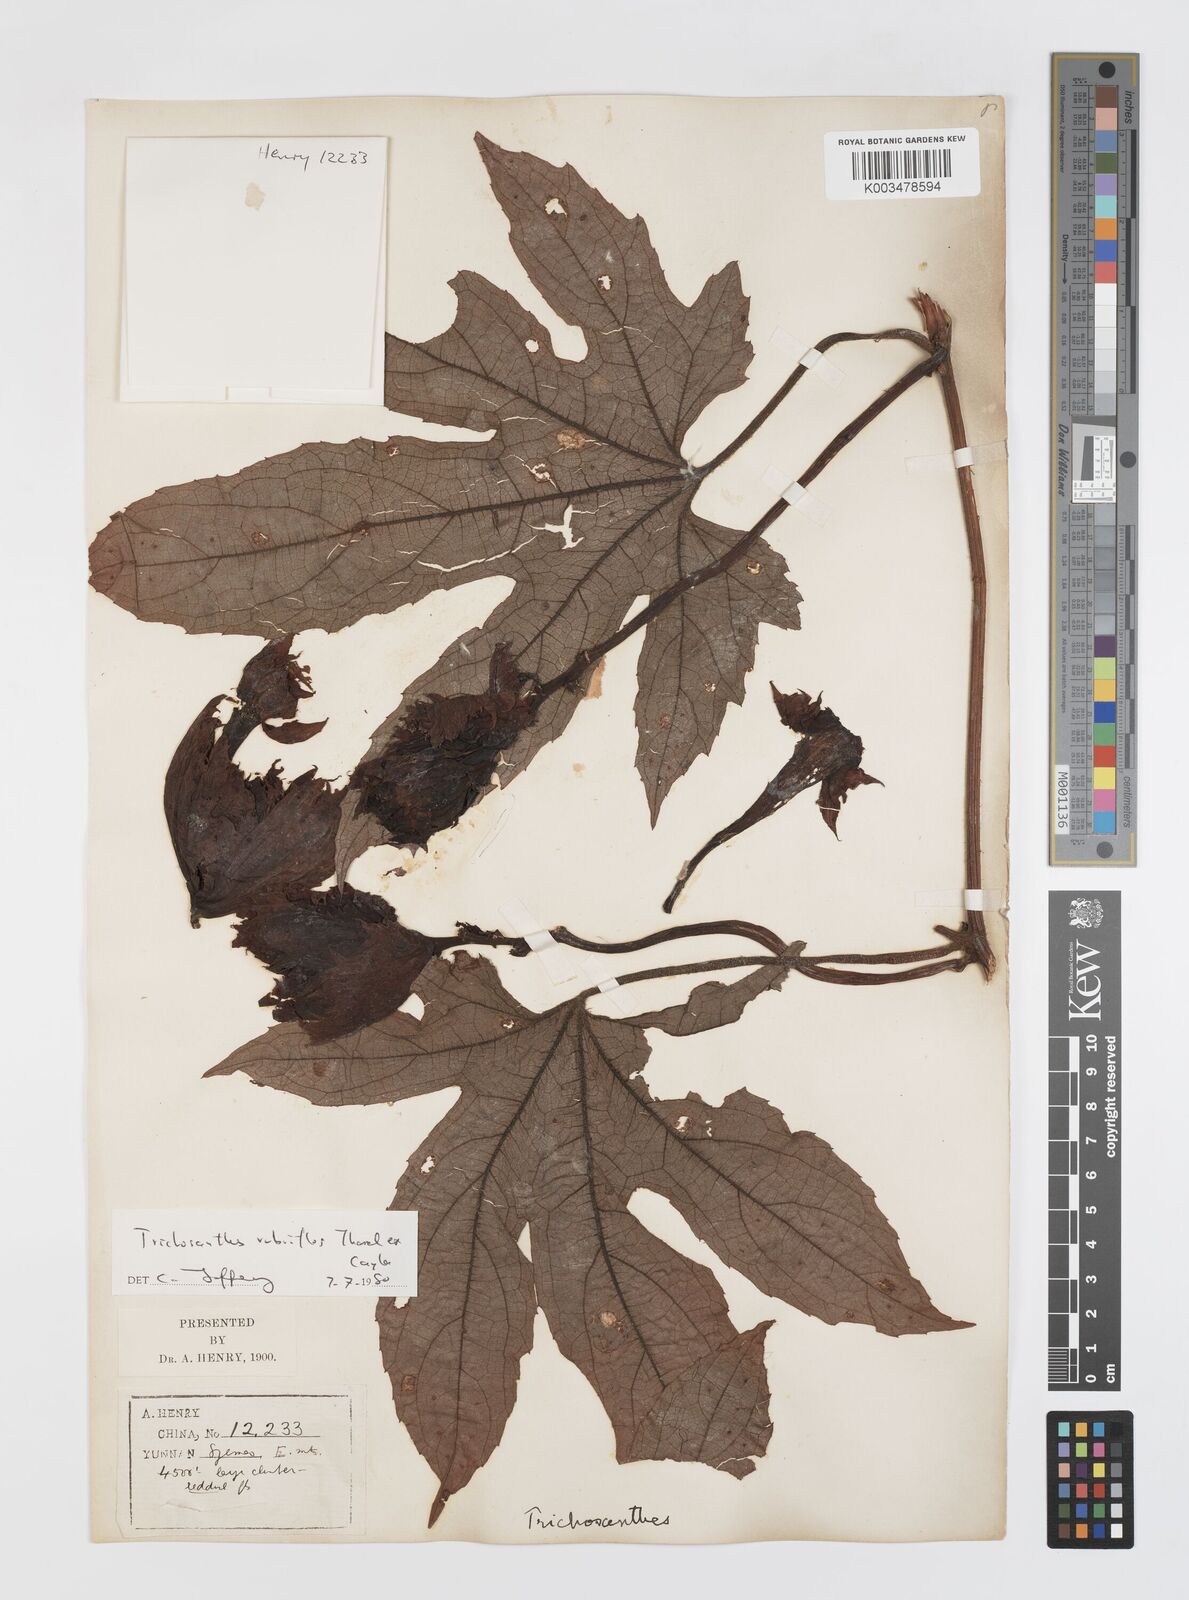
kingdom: Plantae
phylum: Tracheophyta
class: Magnoliopsida
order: Cucurbitales
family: Cucurbitaceae
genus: Trichosanthes
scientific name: Trichosanthes rubriflos
